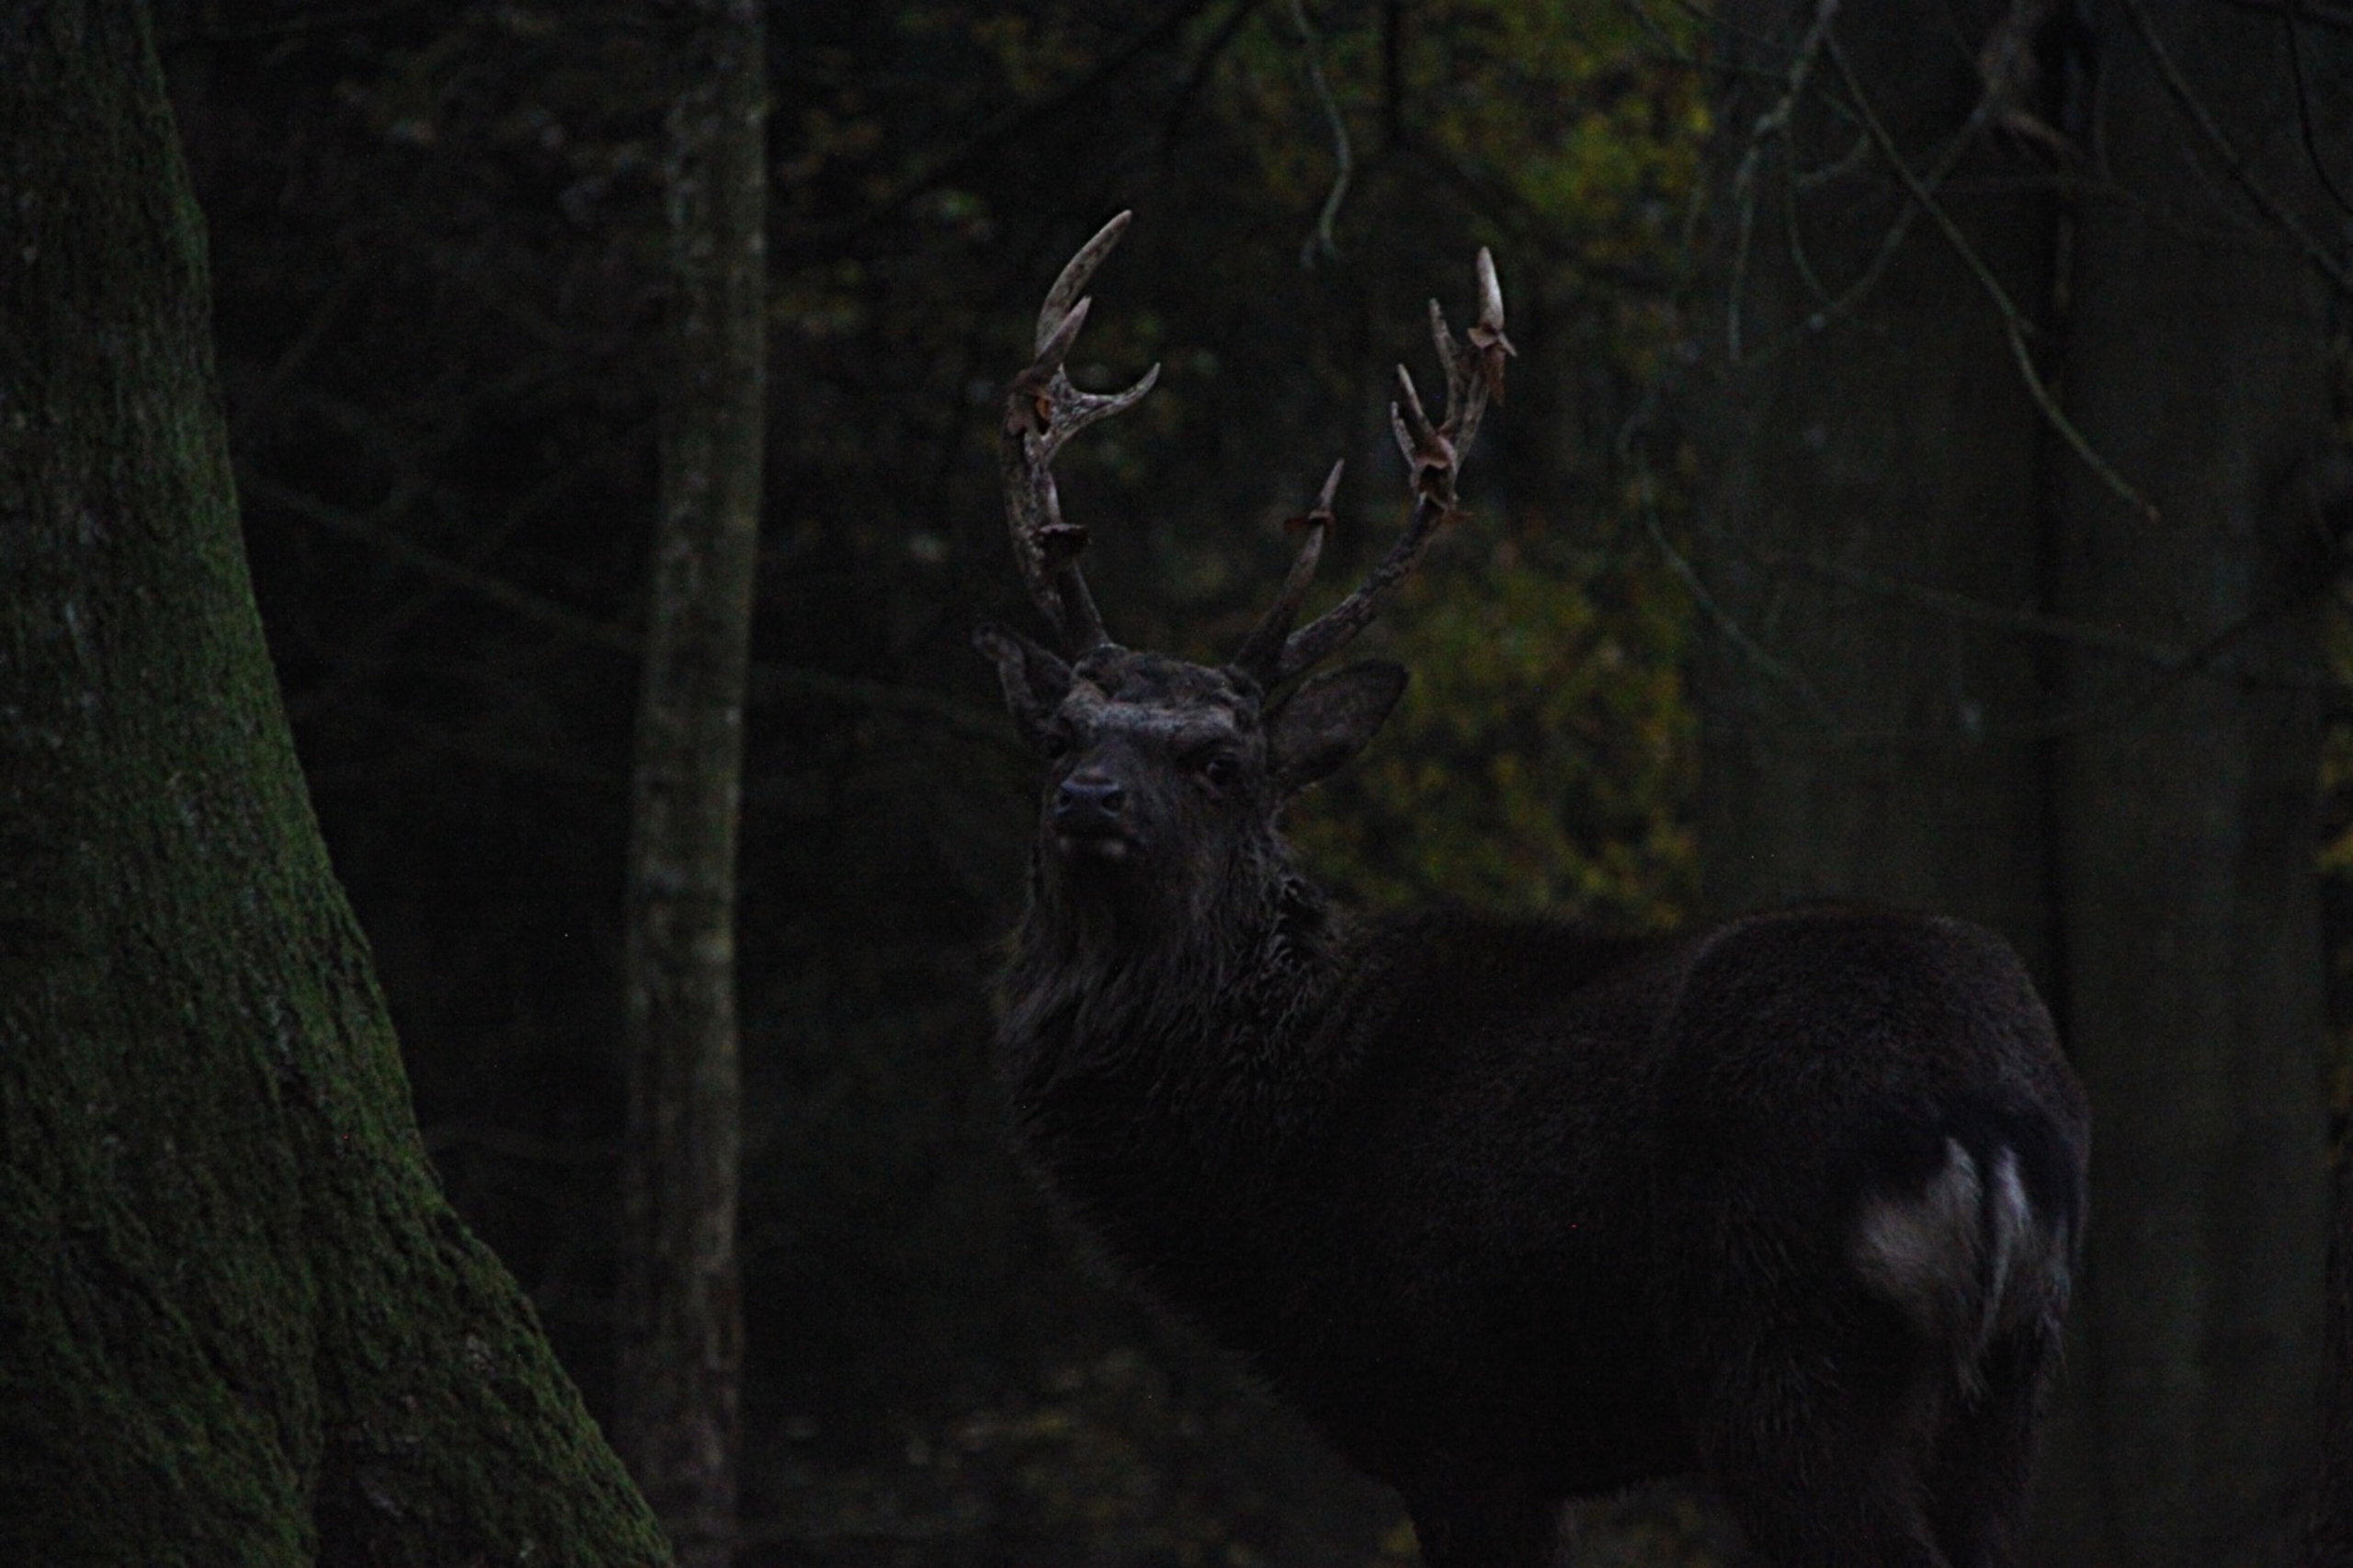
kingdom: Animalia
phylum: Chordata
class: Mammalia
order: Artiodactyla
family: Cervidae
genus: Cervus
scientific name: Cervus nippon
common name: Sika
